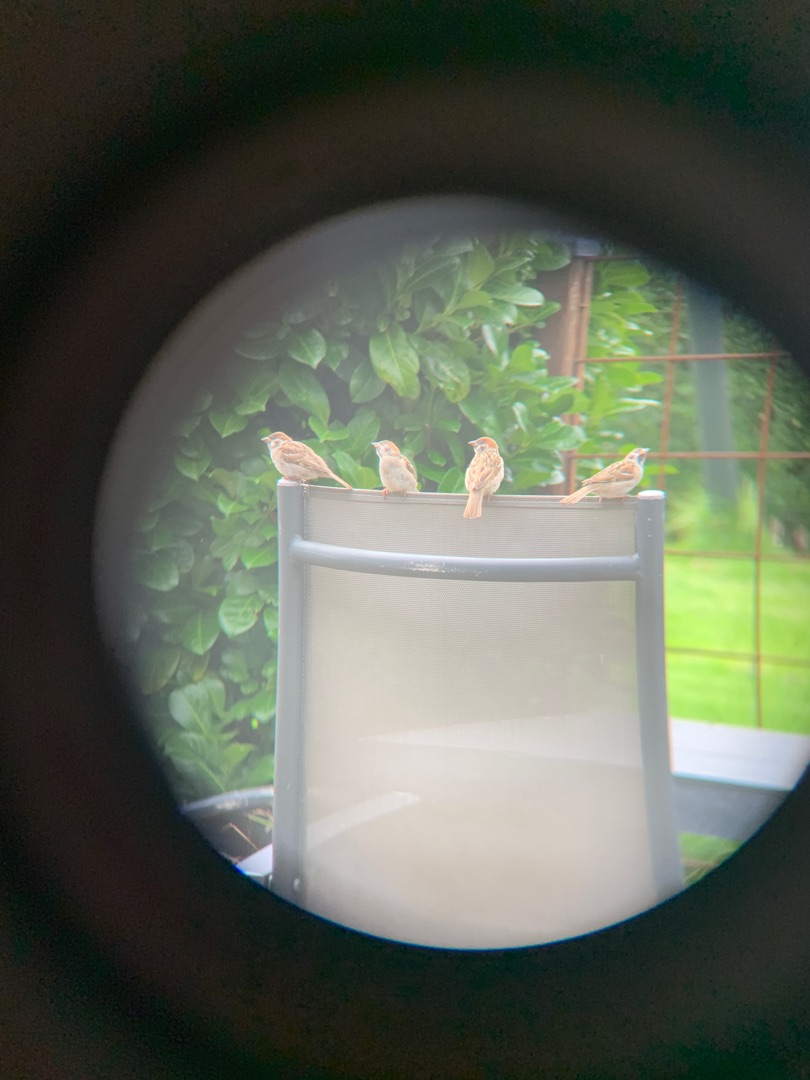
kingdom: Animalia
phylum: Chordata
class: Aves
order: Passeriformes
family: Passeridae
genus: Passer
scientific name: Passer montanus
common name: Skovspurv
